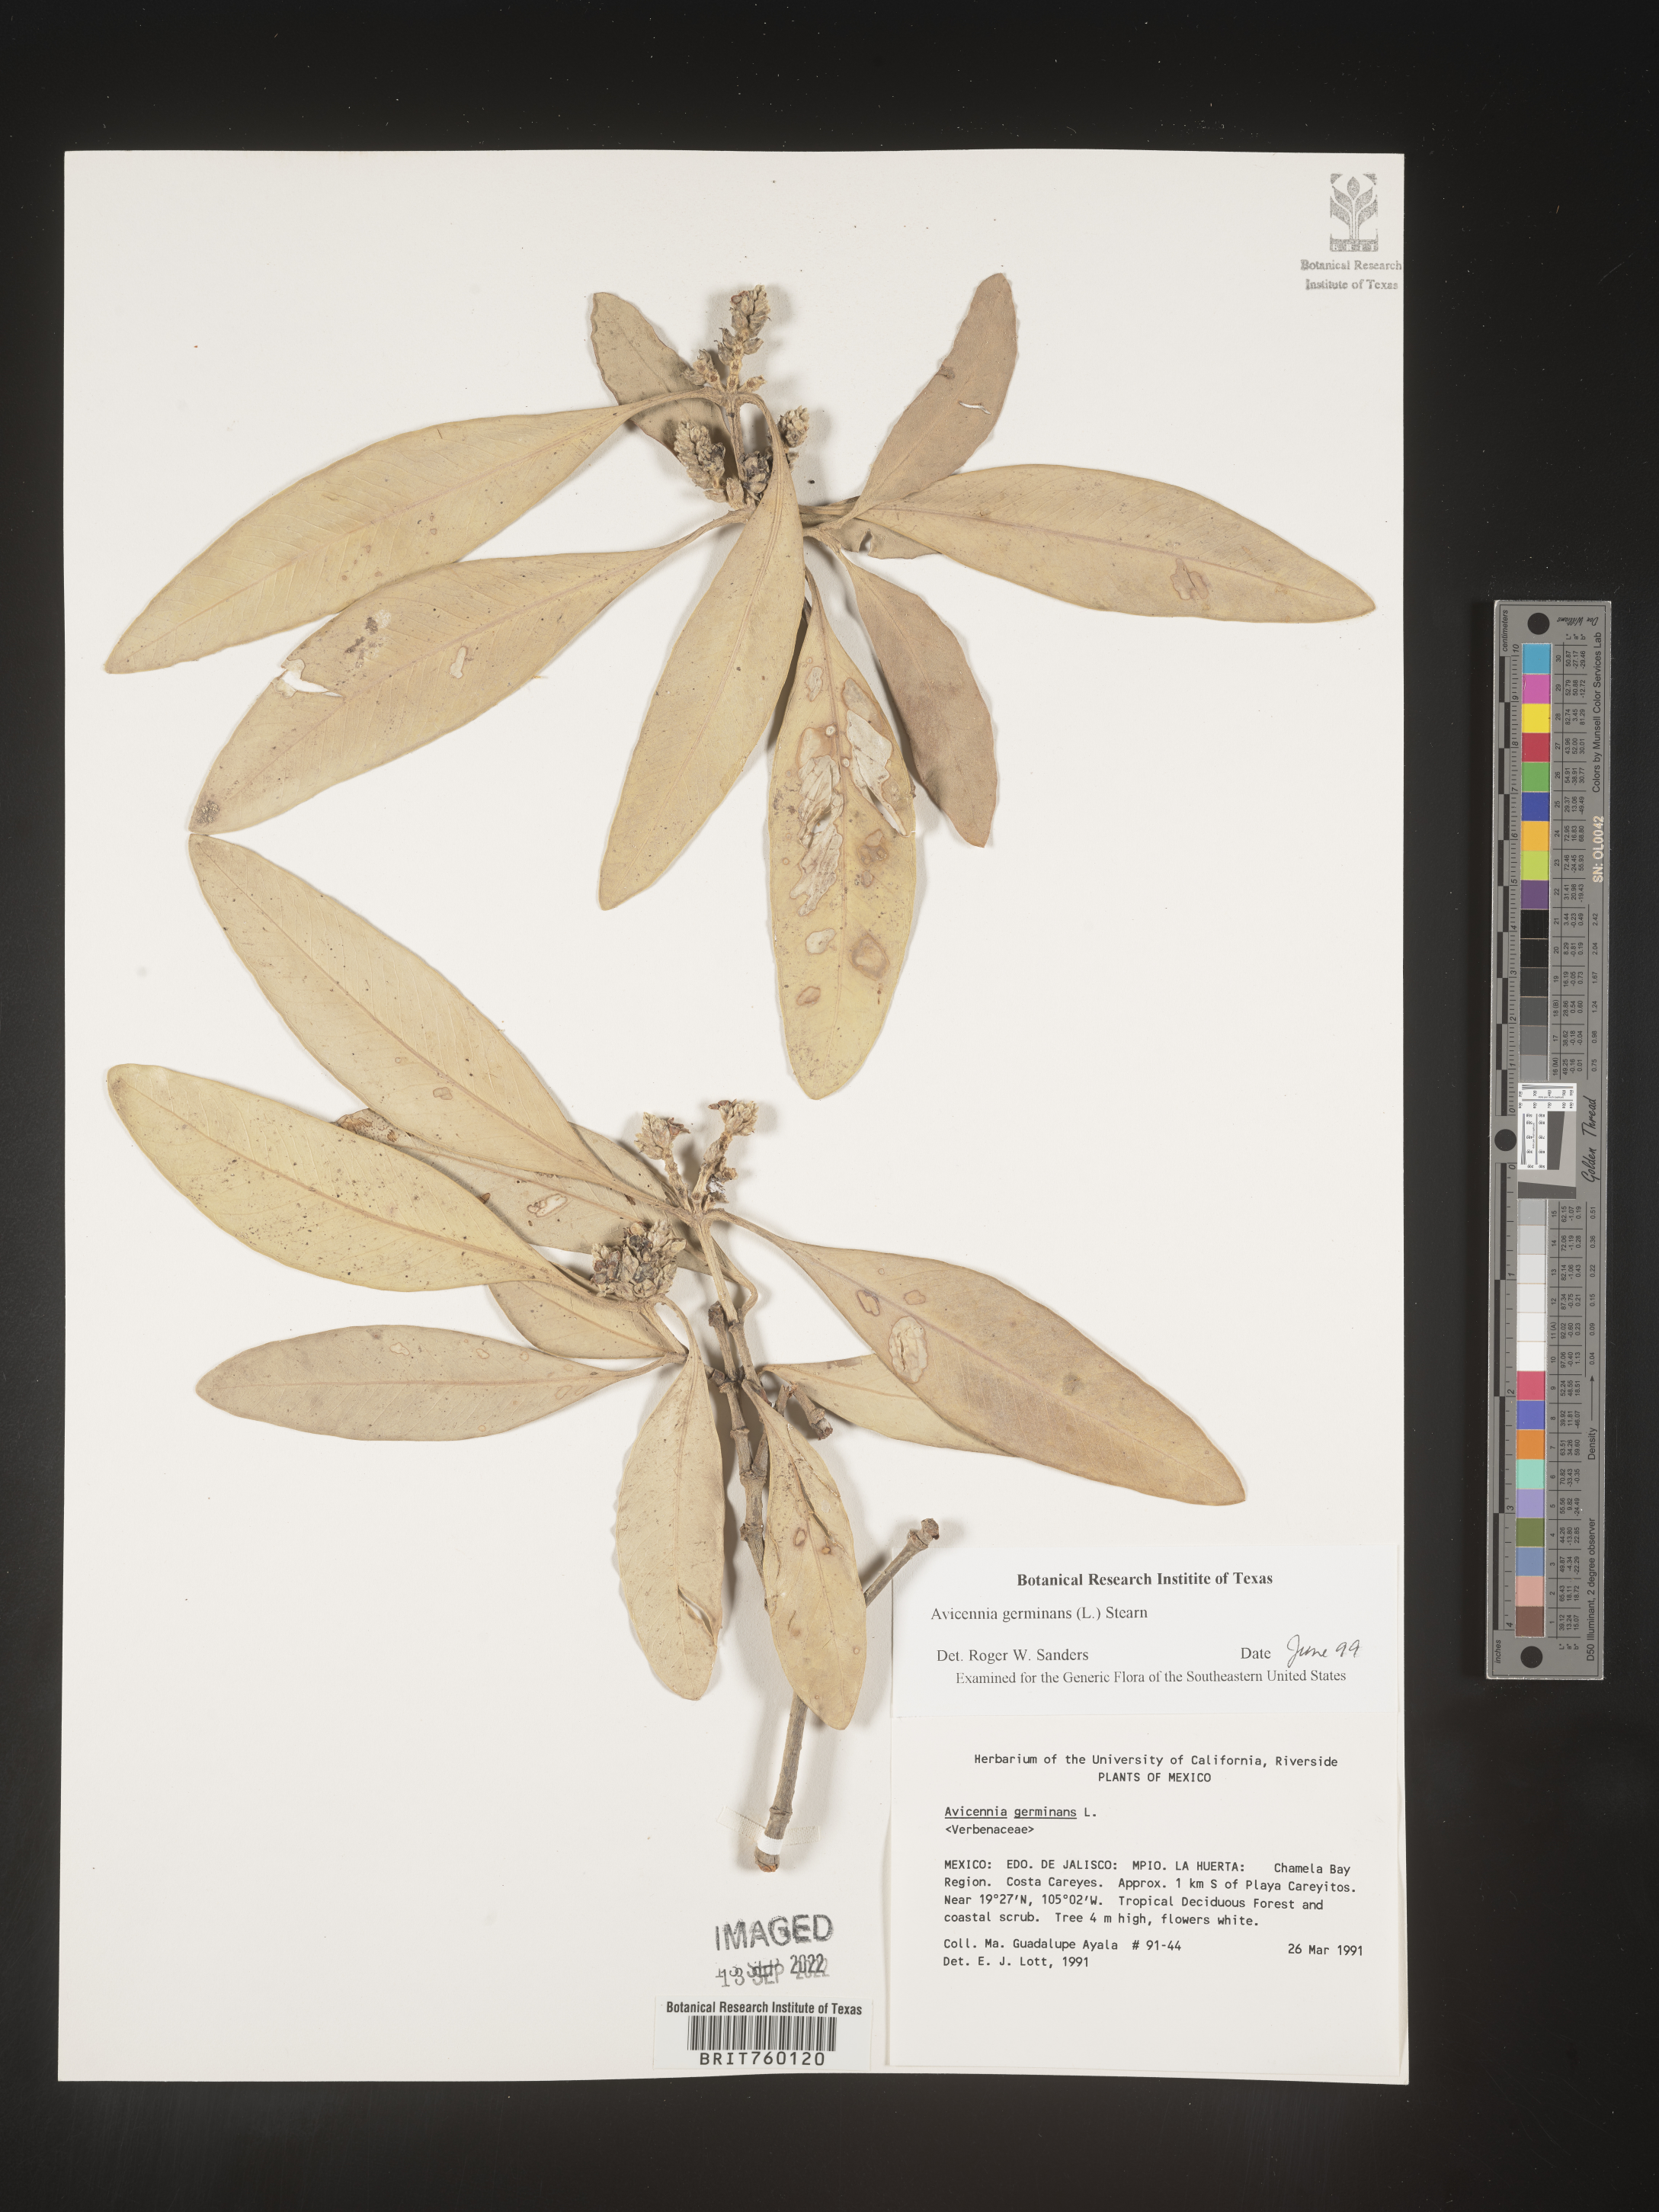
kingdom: Plantae
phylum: Tracheophyta
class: Magnoliopsida
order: Lamiales
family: Acanthaceae
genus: Avicennia
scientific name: Avicennia
